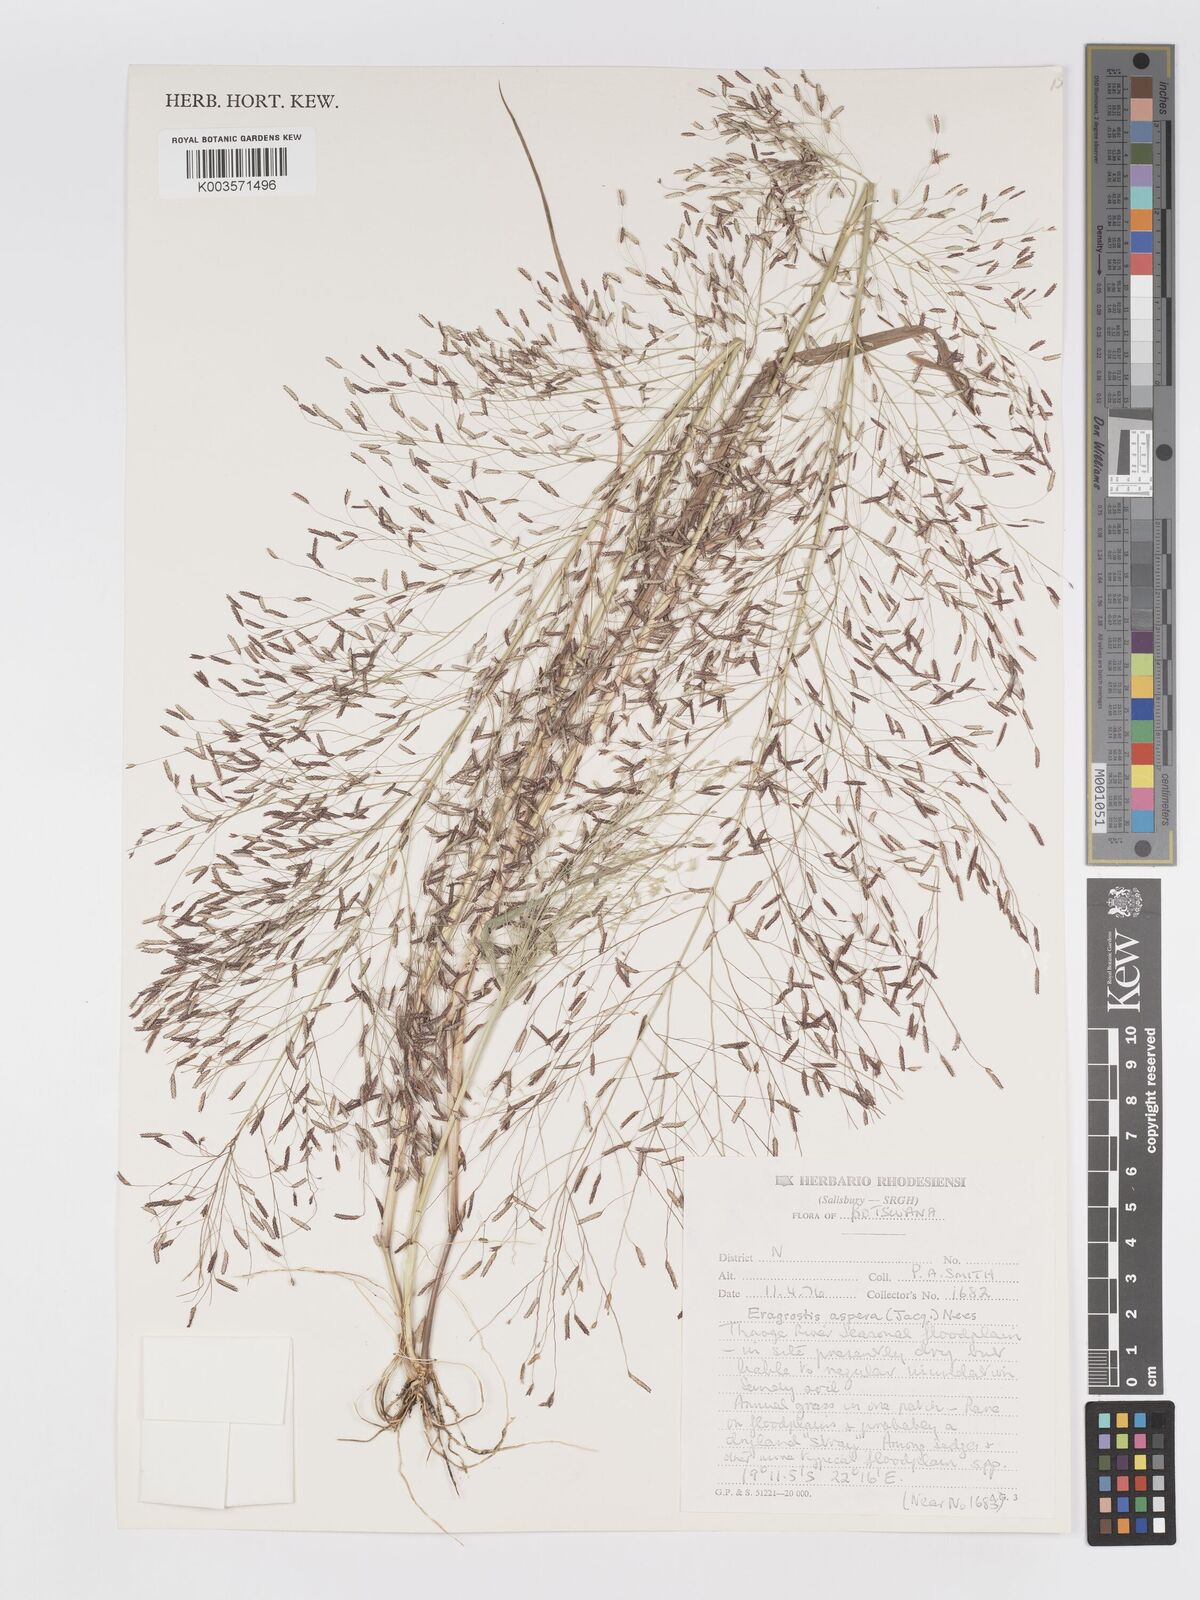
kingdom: Plantae
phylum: Tracheophyta
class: Liliopsida
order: Poales
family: Poaceae
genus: Eragrostis
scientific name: Eragrostis aspera
